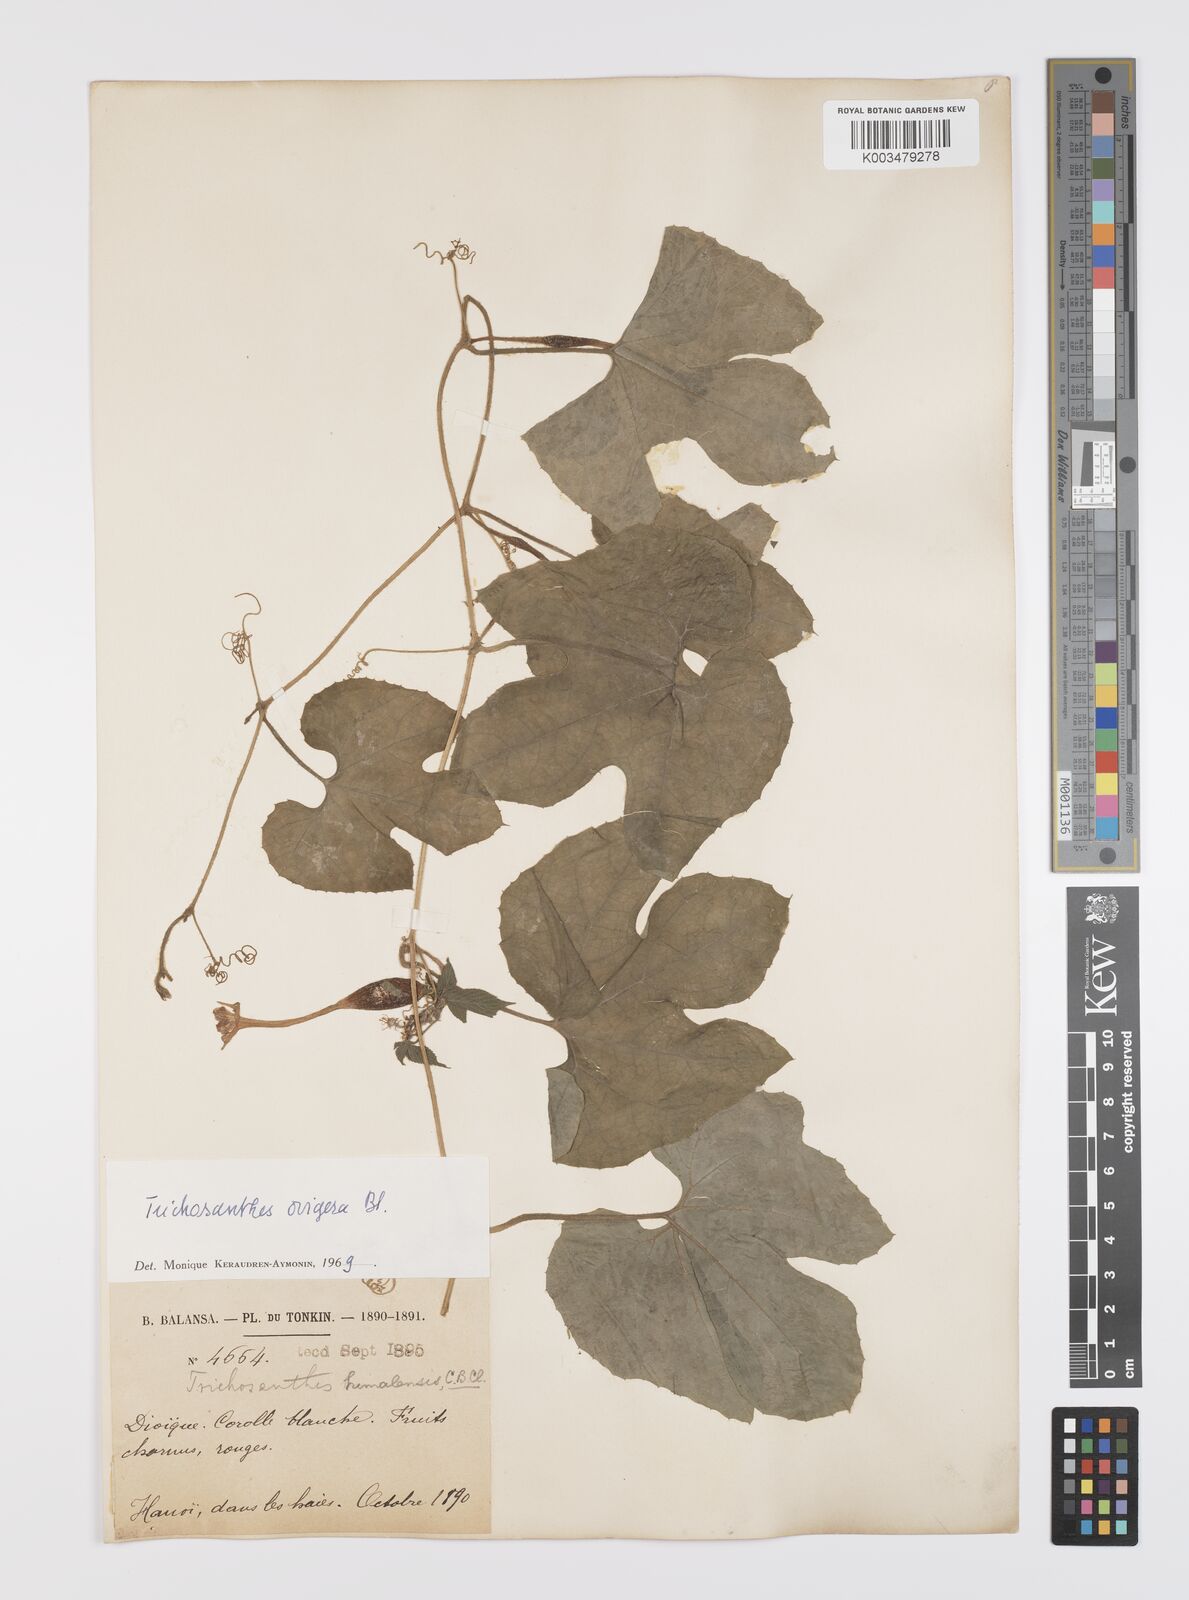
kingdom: Plantae
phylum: Tracheophyta
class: Magnoliopsida
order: Cucurbitales
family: Cucurbitaceae
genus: Trichosanthes
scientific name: Trichosanthes ovigera
